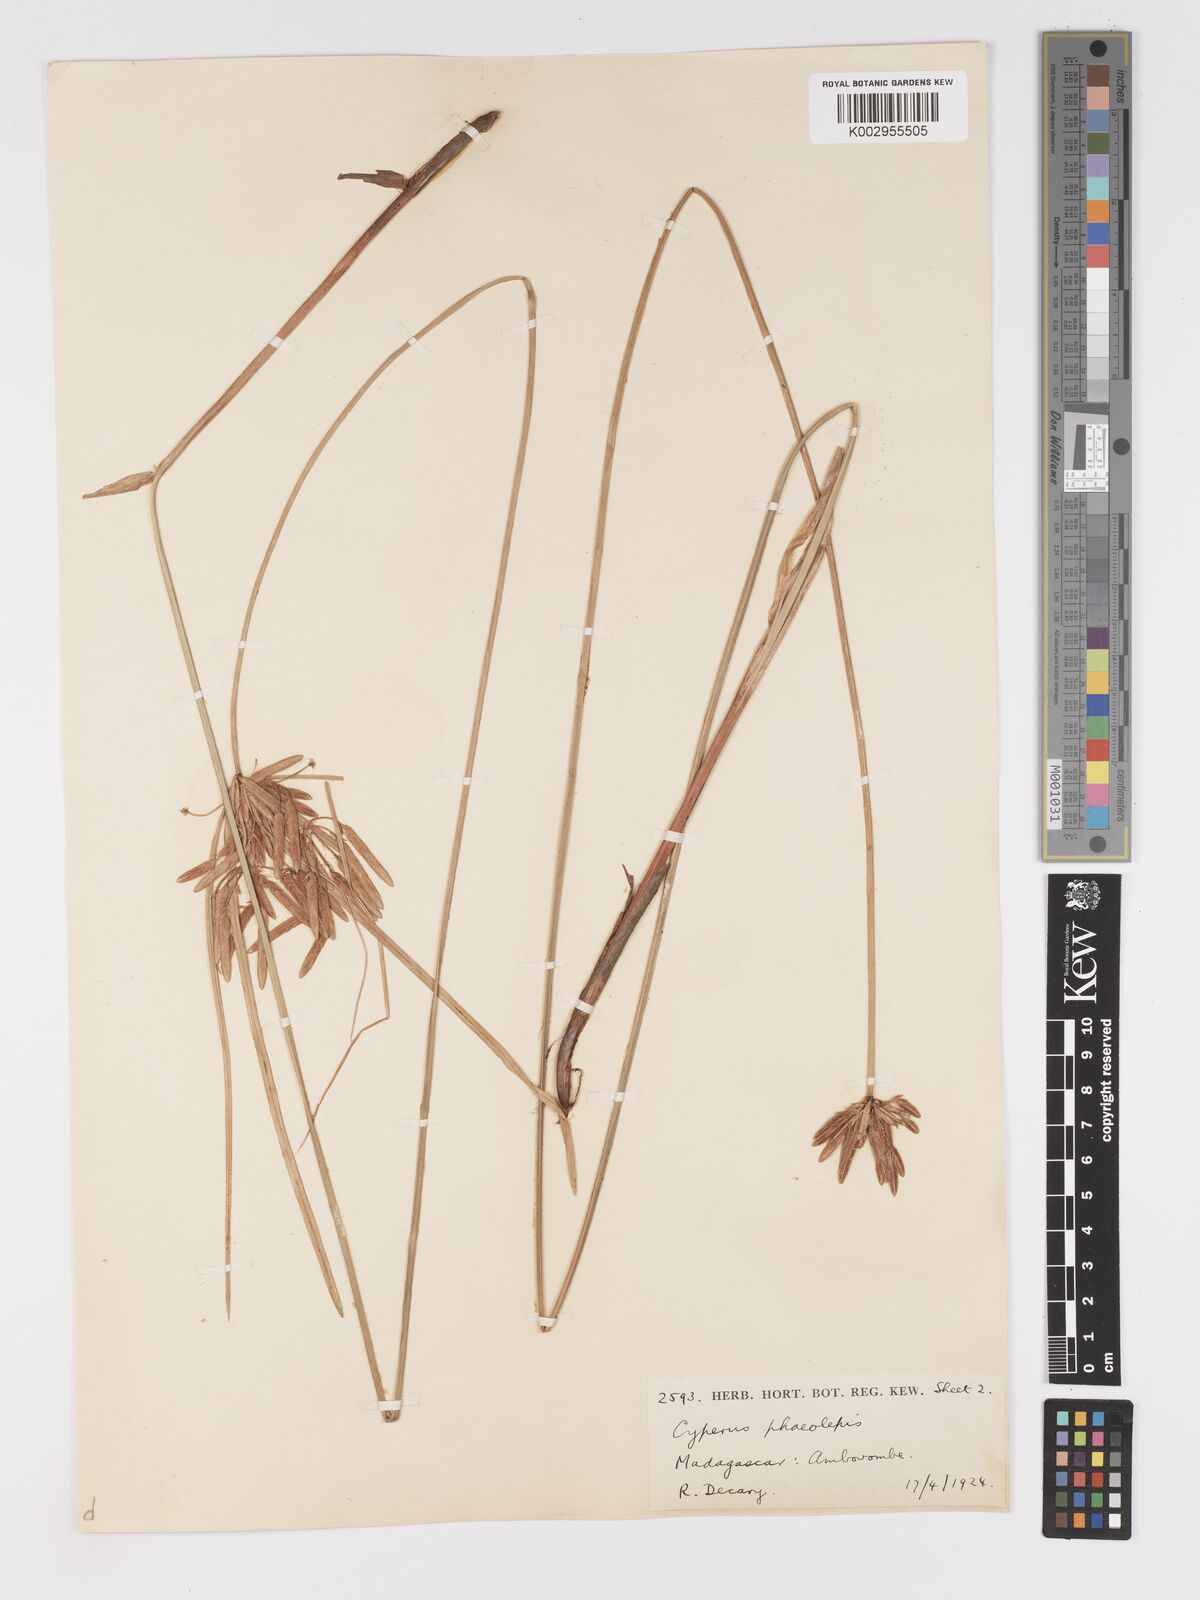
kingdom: Plantae
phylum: Tracheophyta
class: Liliopsida
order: Poales
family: Cyperaceae
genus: Cyperus
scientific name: Cyperus phaeolepis
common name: Madagascar flatsedge
